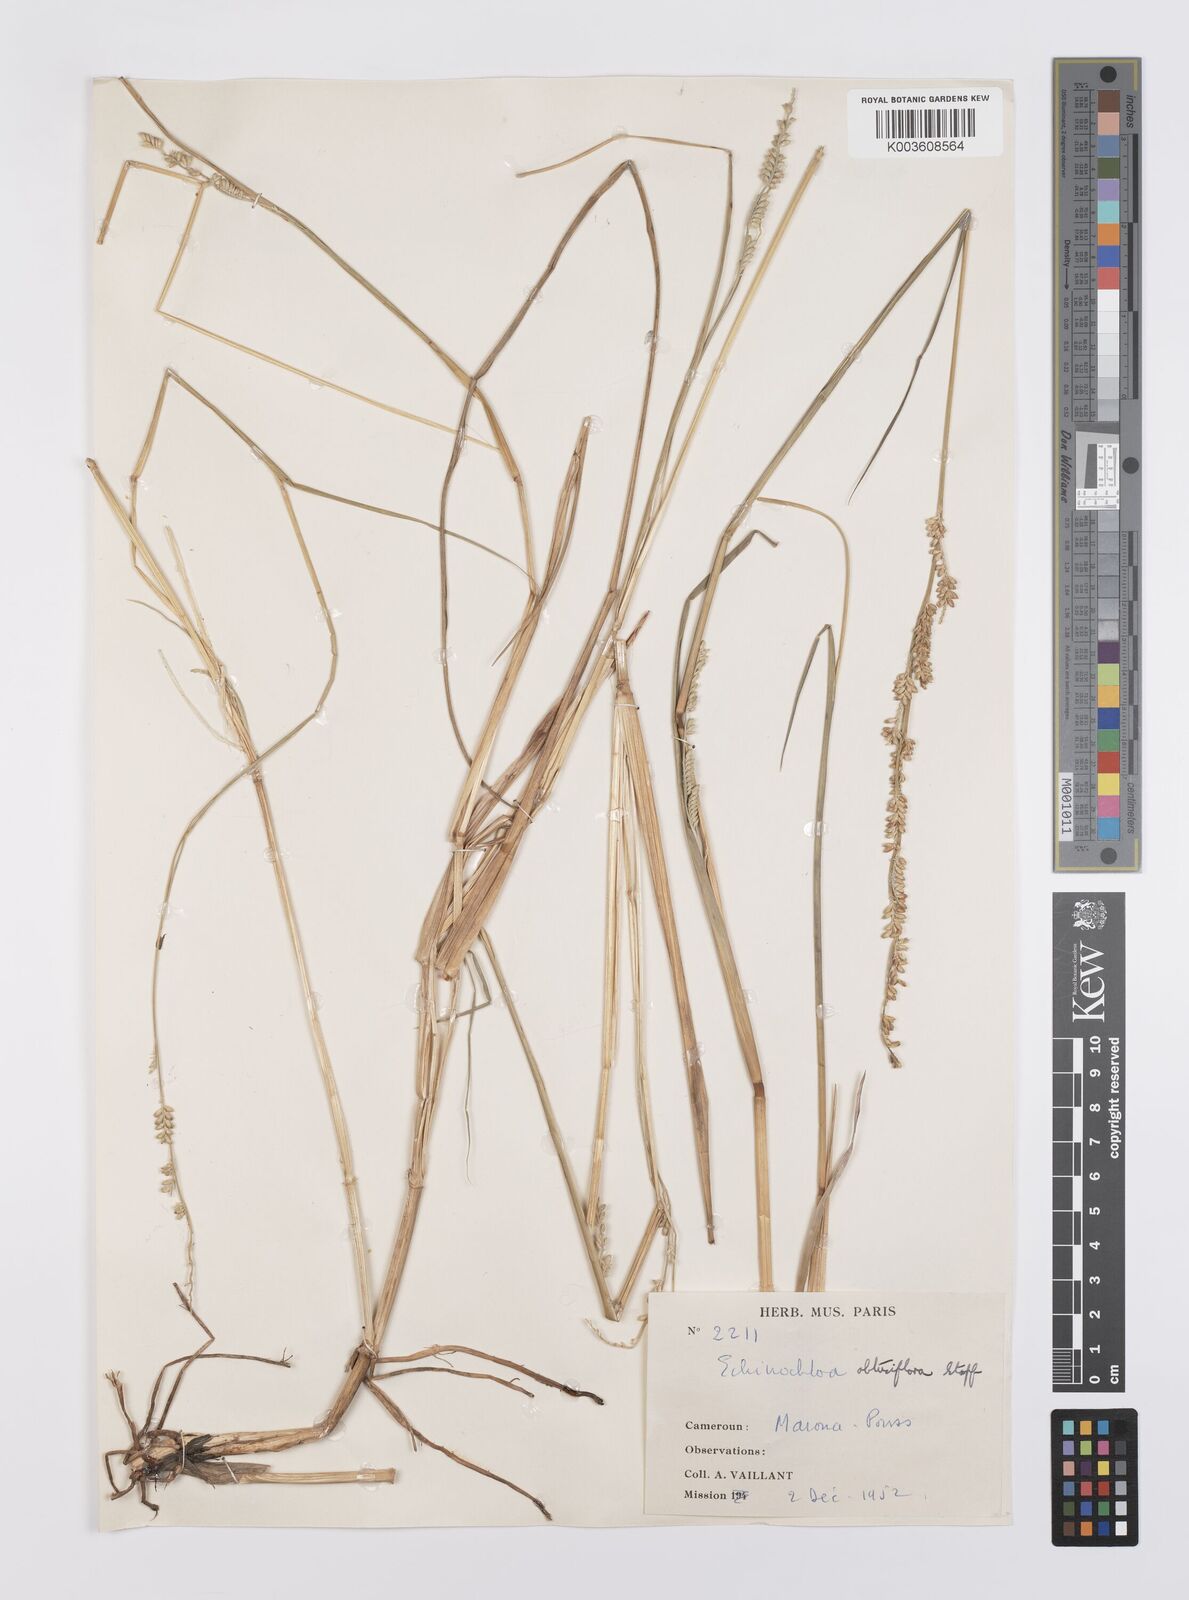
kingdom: Plantae
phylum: Tracheophyta
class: Liliopsida
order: Poales
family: Poaceae
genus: Echinochloa
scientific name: Echinochloa obtusiflora
